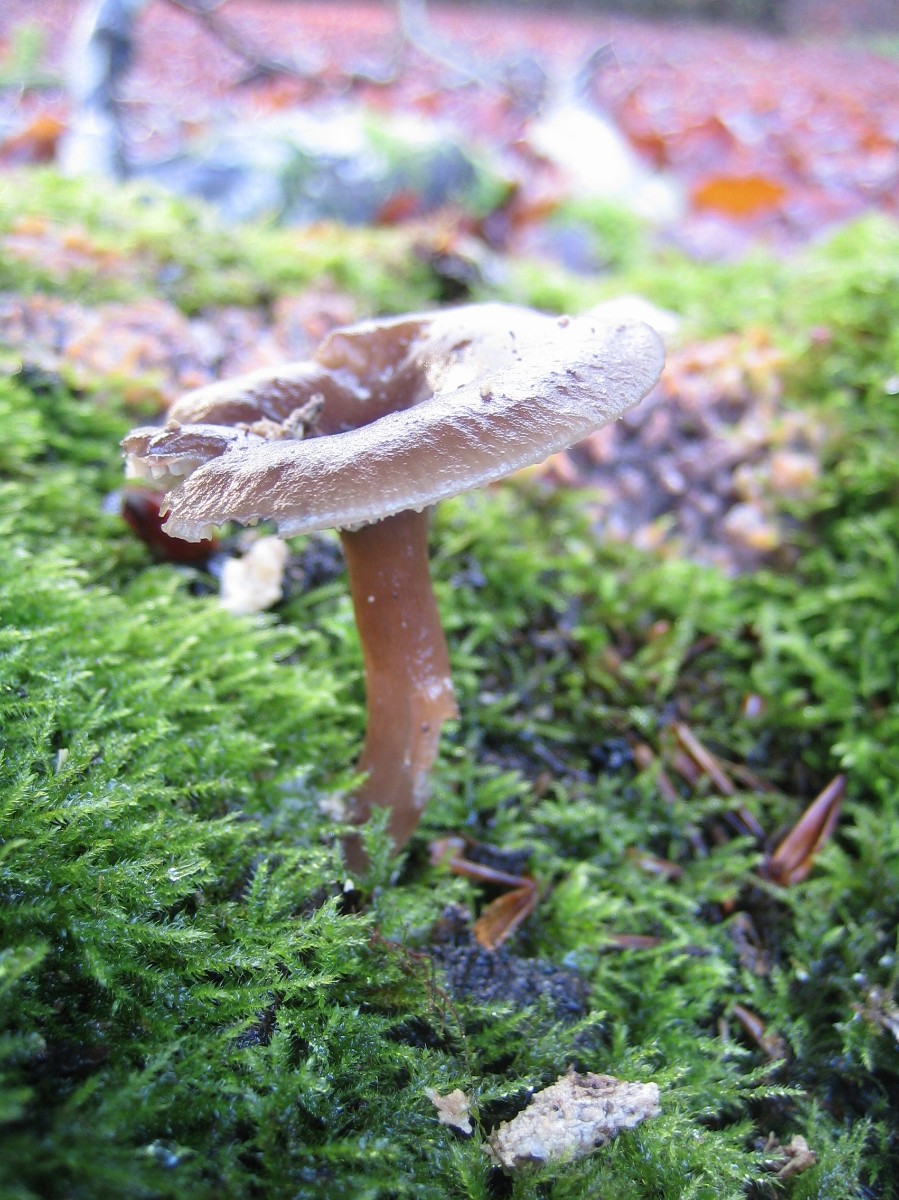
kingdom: Fungi
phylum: Basidiomycota
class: Agaricomycetes
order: Agaricales
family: Pseudoclitocybaceae
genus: Pseudoclitocybe
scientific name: Pseudoclitocybe cyathiformis
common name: almindelig bægertragthat
